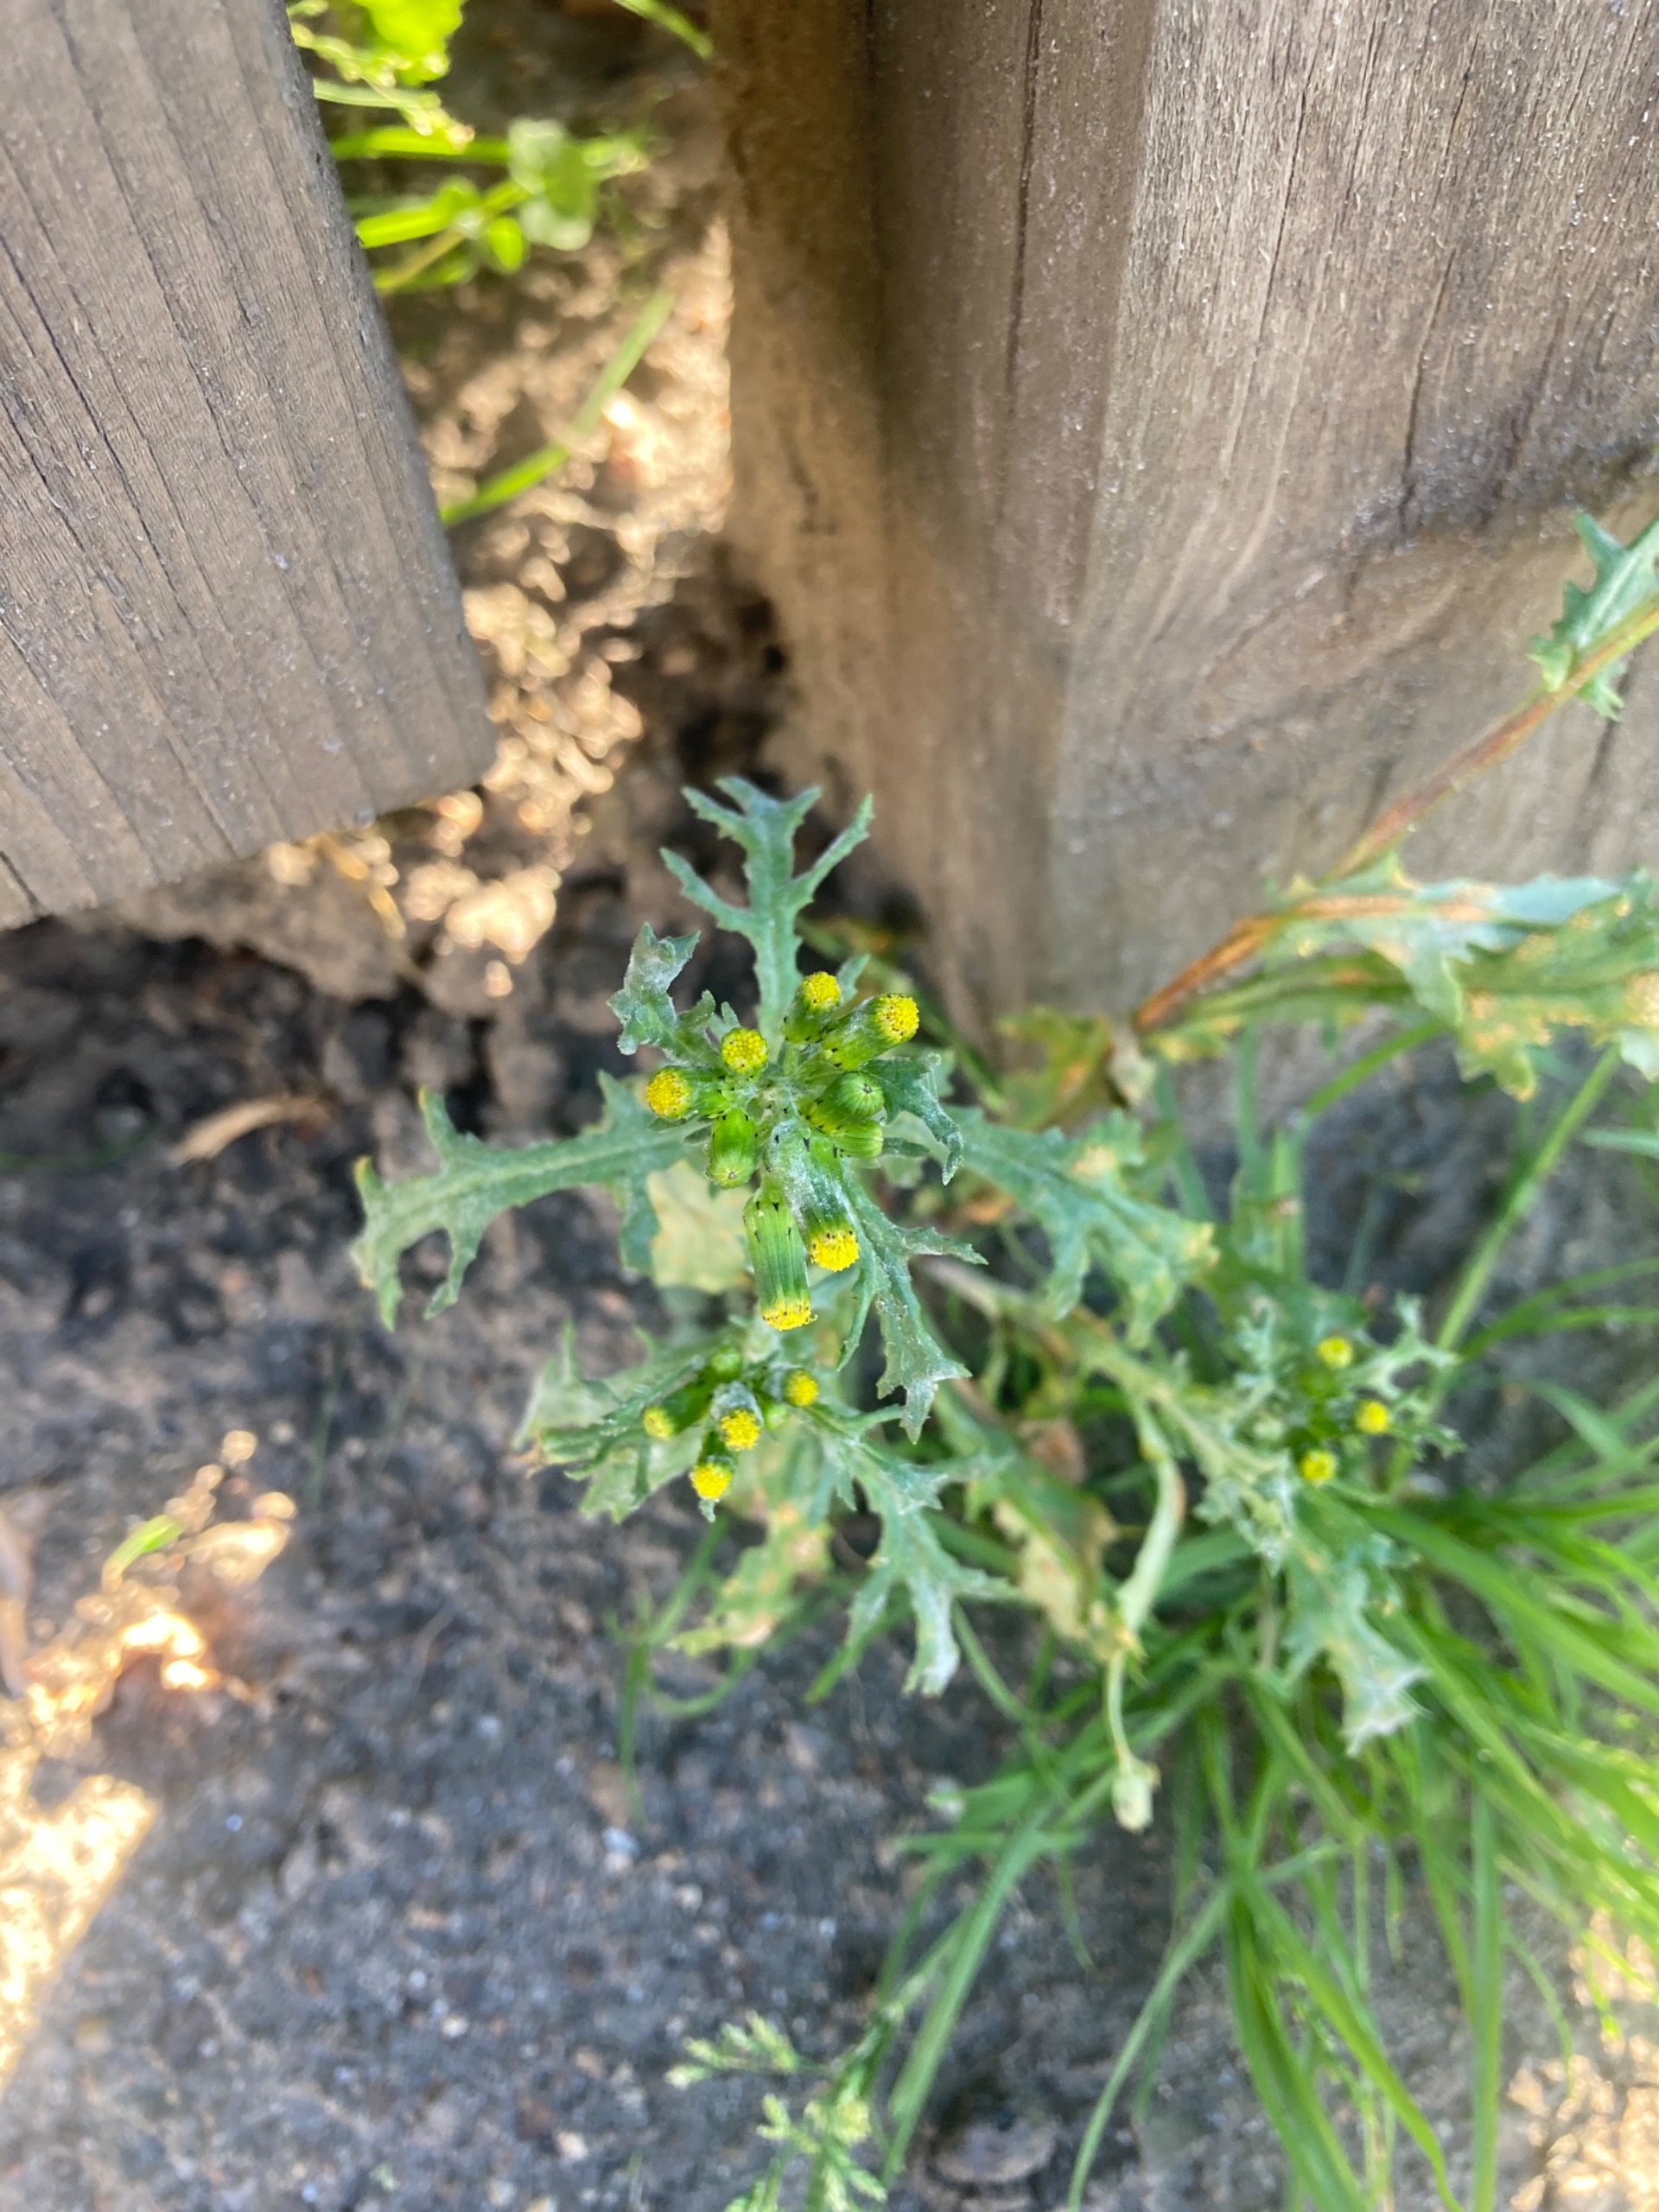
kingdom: Plantae
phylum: Tracheophyta
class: Magnoliopsida
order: Asterales
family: Asteraceae
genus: Senecio
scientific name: Senecio vulgaris
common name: Almindelig brandbæger
